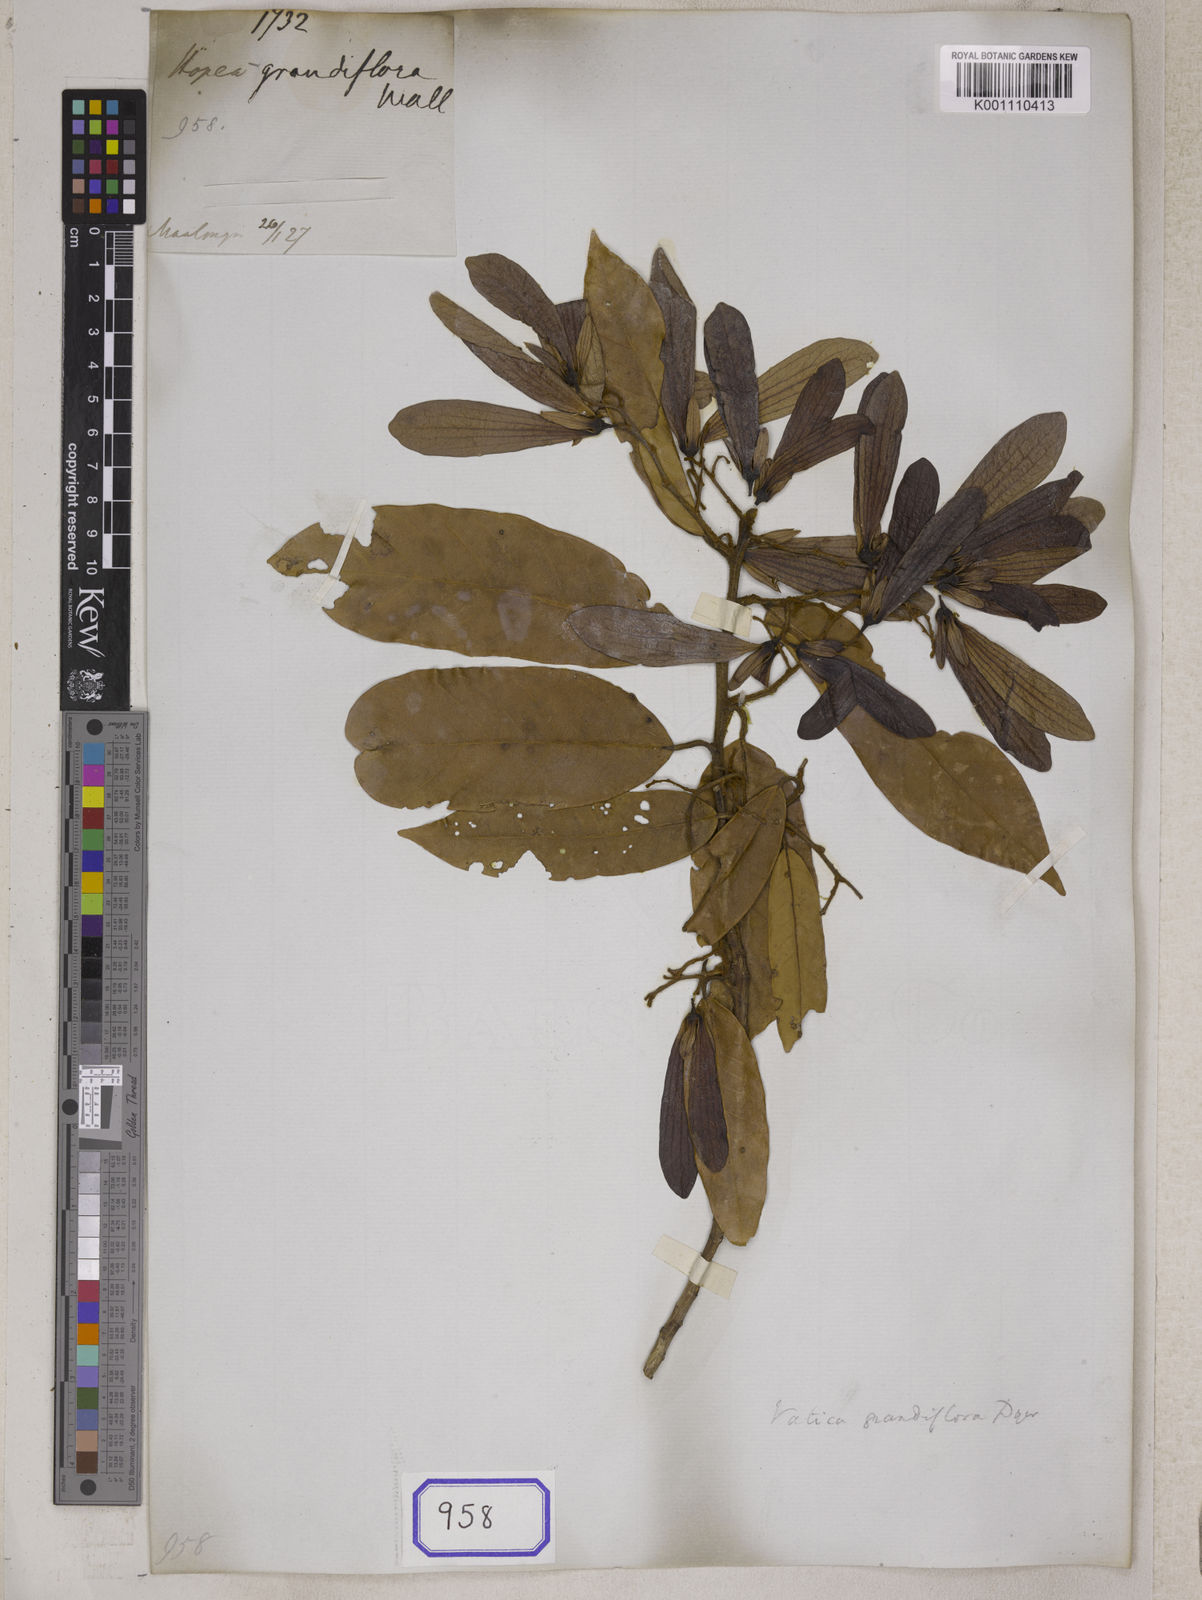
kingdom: Plantae
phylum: Tracheophyta
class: Magnoliopsida
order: Malvales
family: Dipterocarpaceae
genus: Hopea
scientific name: Hopea
